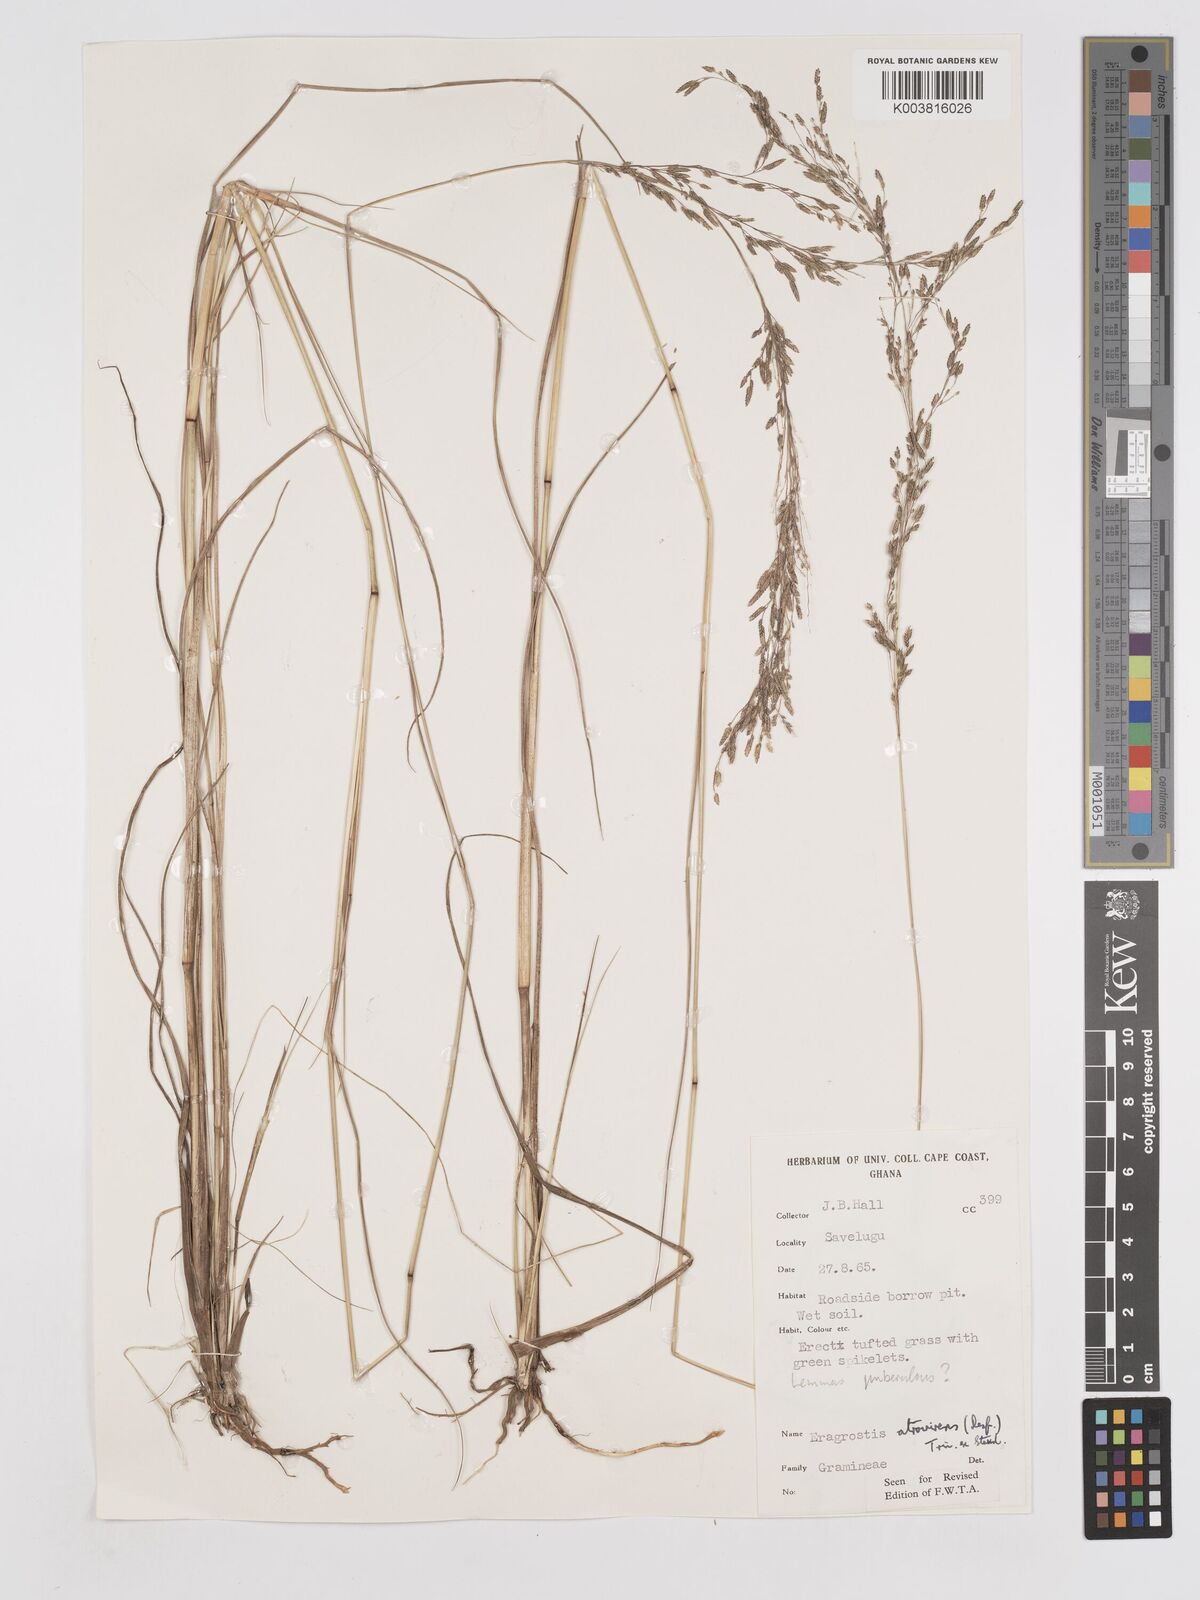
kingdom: Plantae
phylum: Tracheophyta
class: Liliopsida
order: Poales
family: Poaceae
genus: Eragrostis
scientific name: Eragrostis atrovirens
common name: Thalia lovegrass
